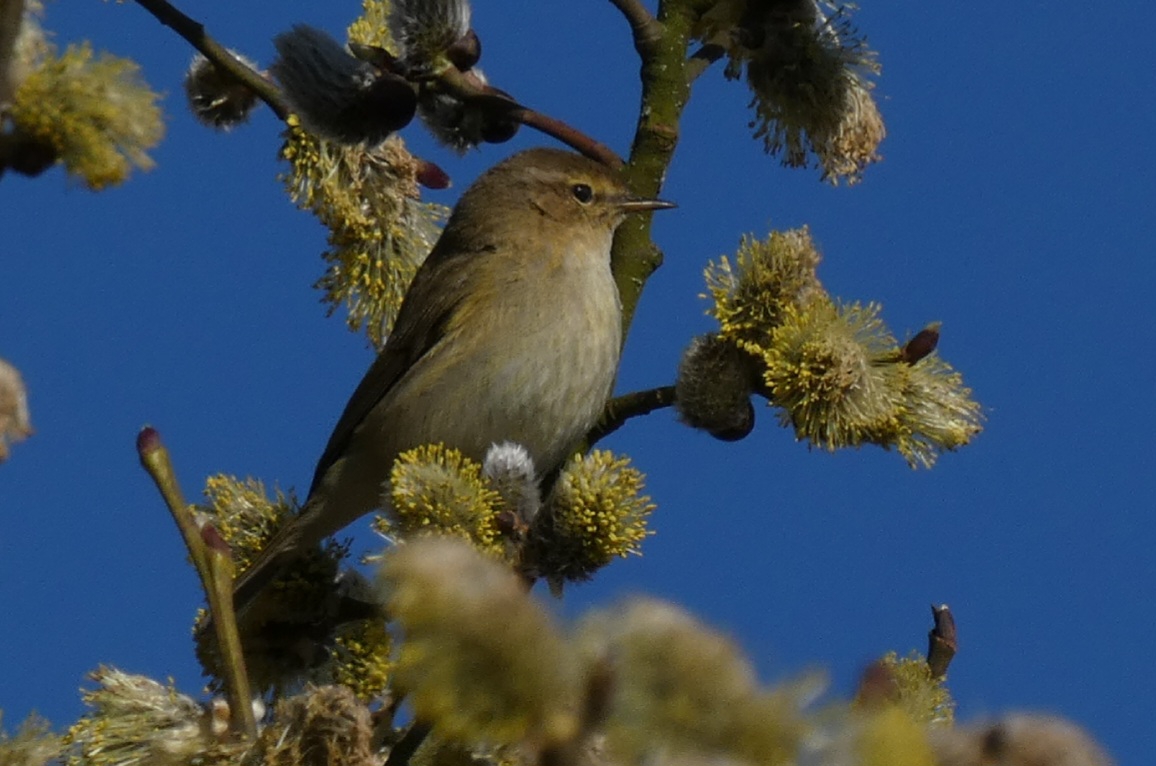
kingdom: Animalia
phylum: Chordata
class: Aves
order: Passeriformes
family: Phylloscopidae
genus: Phylloscopus
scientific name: Phylloscopus collybita
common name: Gransanger
